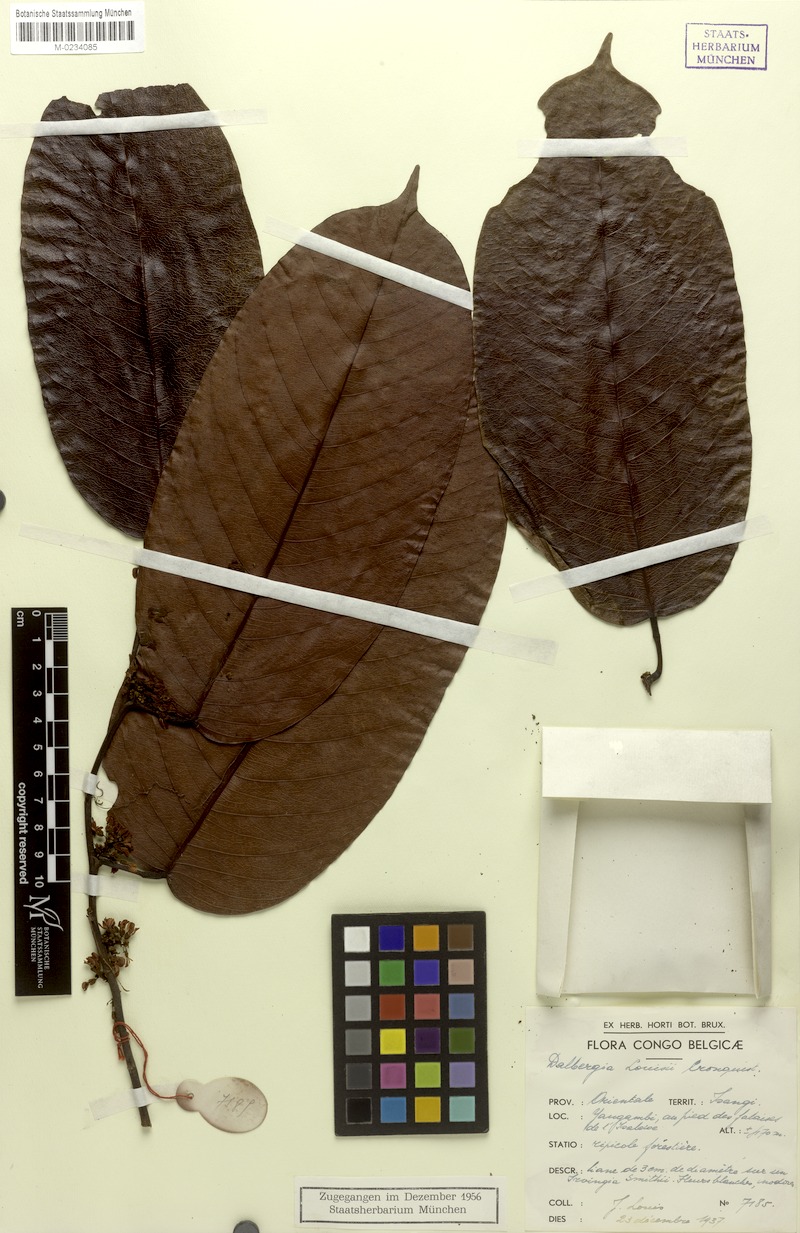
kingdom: Plantae
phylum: Tracheophyta
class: Magnoliopsida
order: Fabales
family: Fabaceae
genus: Dalbergia
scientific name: Dalbergia louisii
